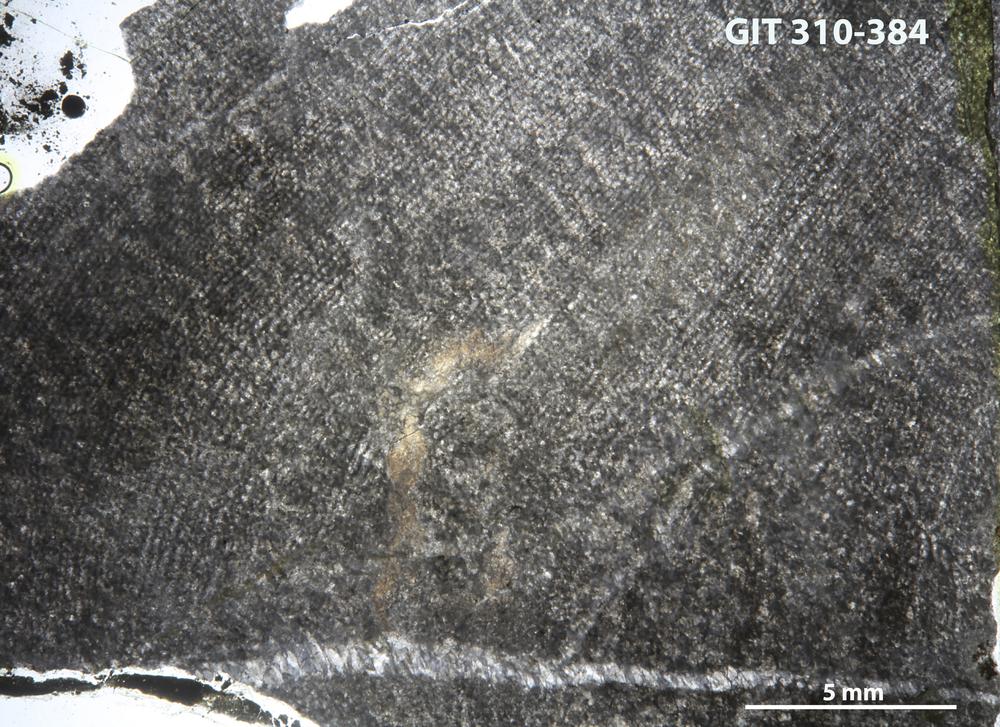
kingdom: Animalia
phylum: Porifera
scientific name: Porifera
